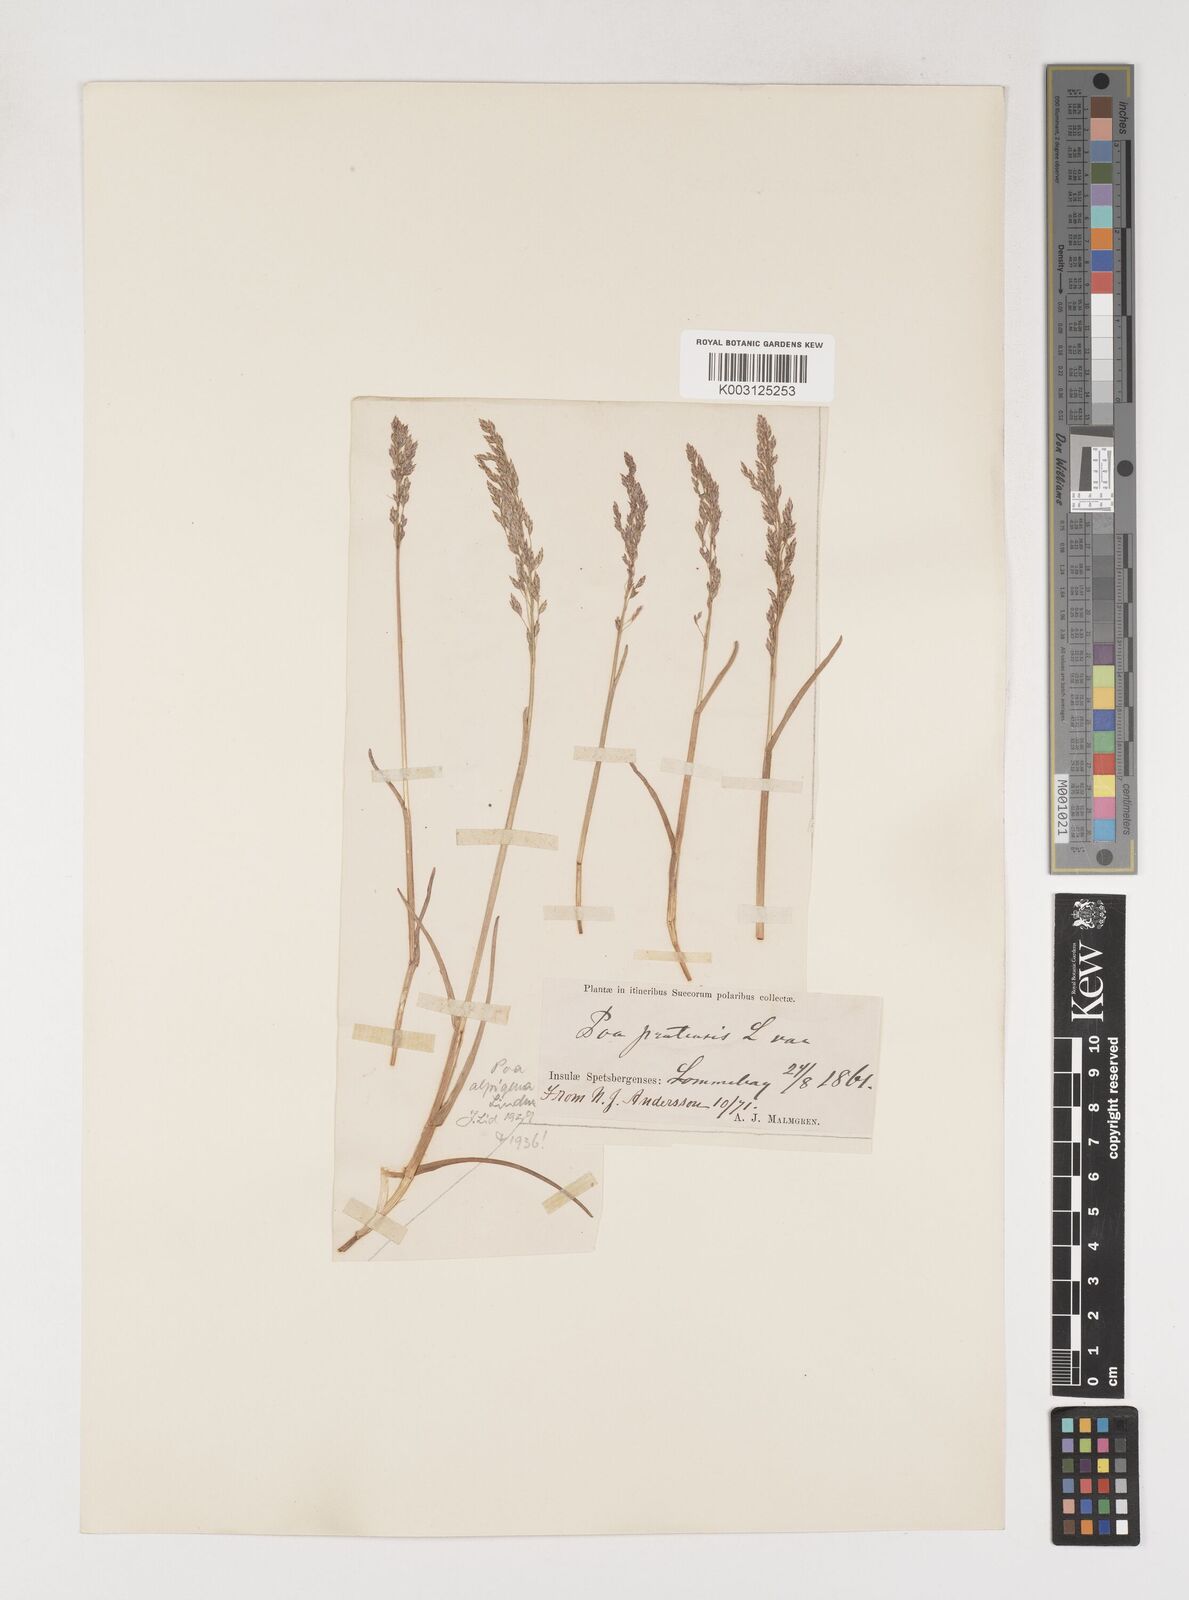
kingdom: Plantae
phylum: Tracheophyta
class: Liliopsida
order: Poales
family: Poaceae
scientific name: Poaceae
